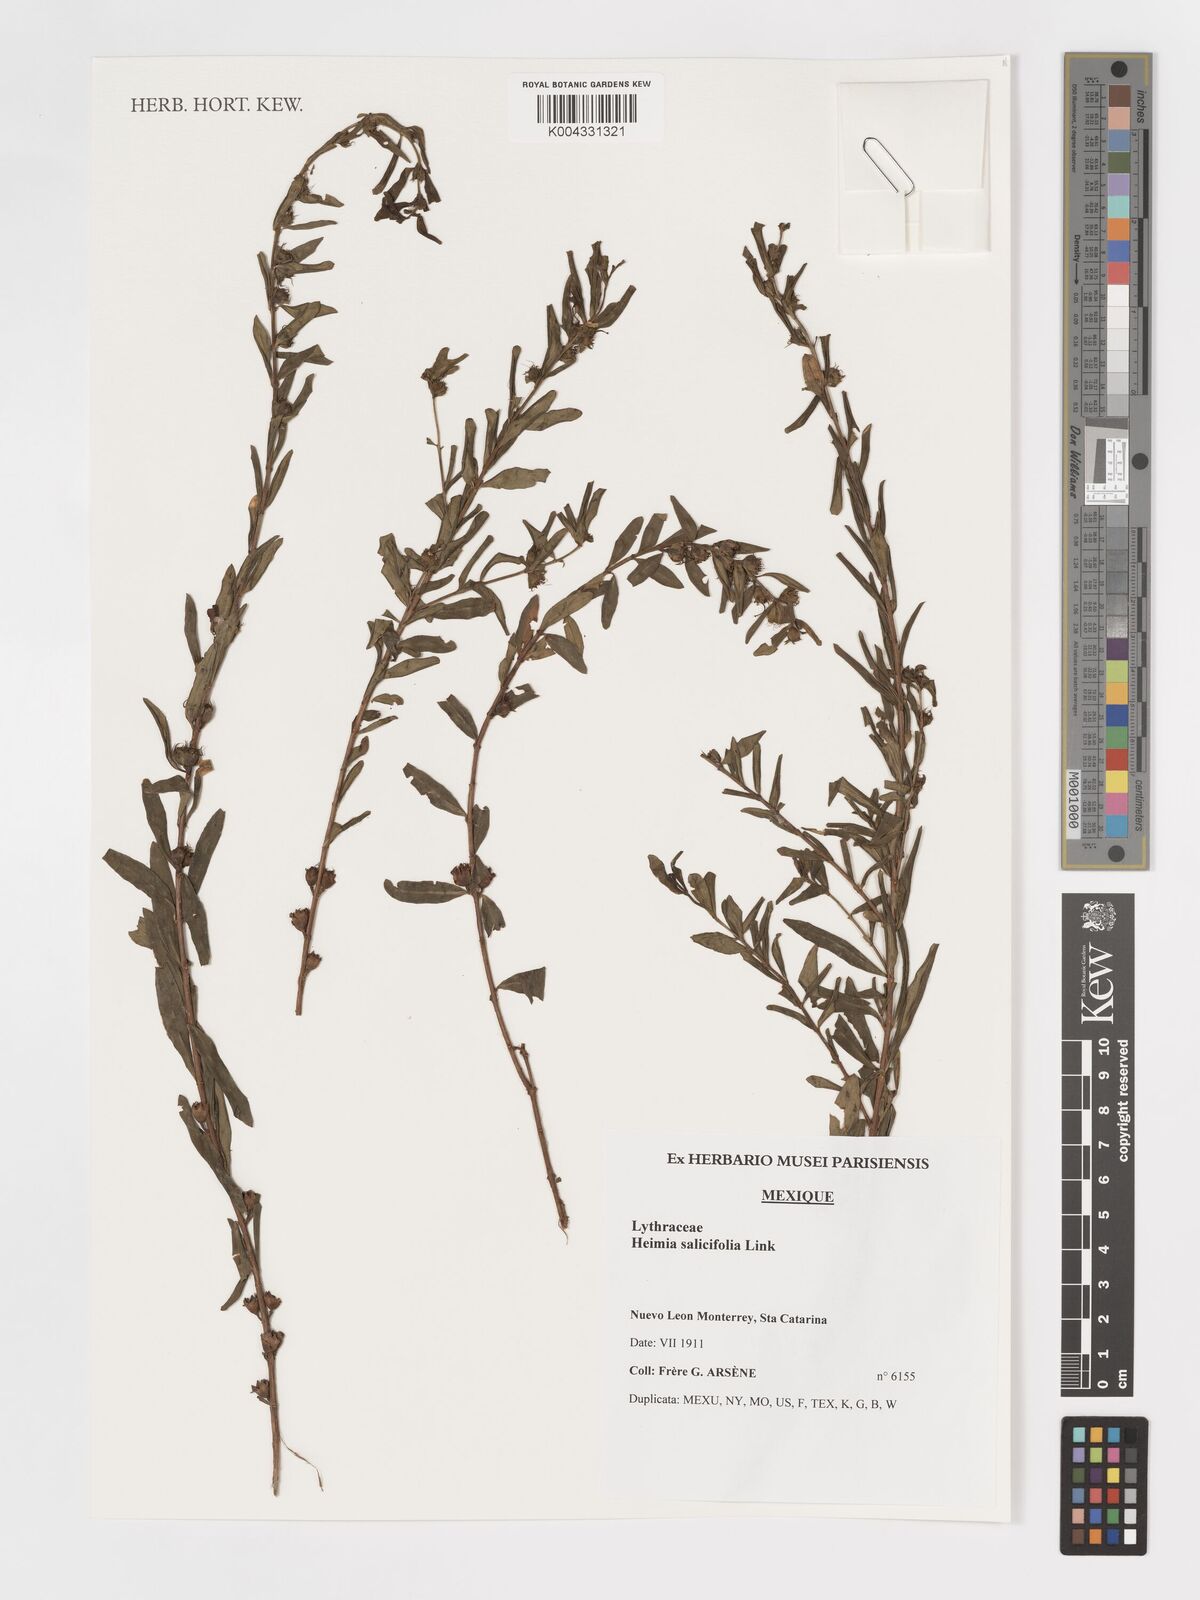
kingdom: Plantae
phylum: Tracheophyta
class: Magnoliopsida
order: Myrtales
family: Lythraceae
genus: Heimia
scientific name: Heimia salicifolia
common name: Willow-leaf heimia
